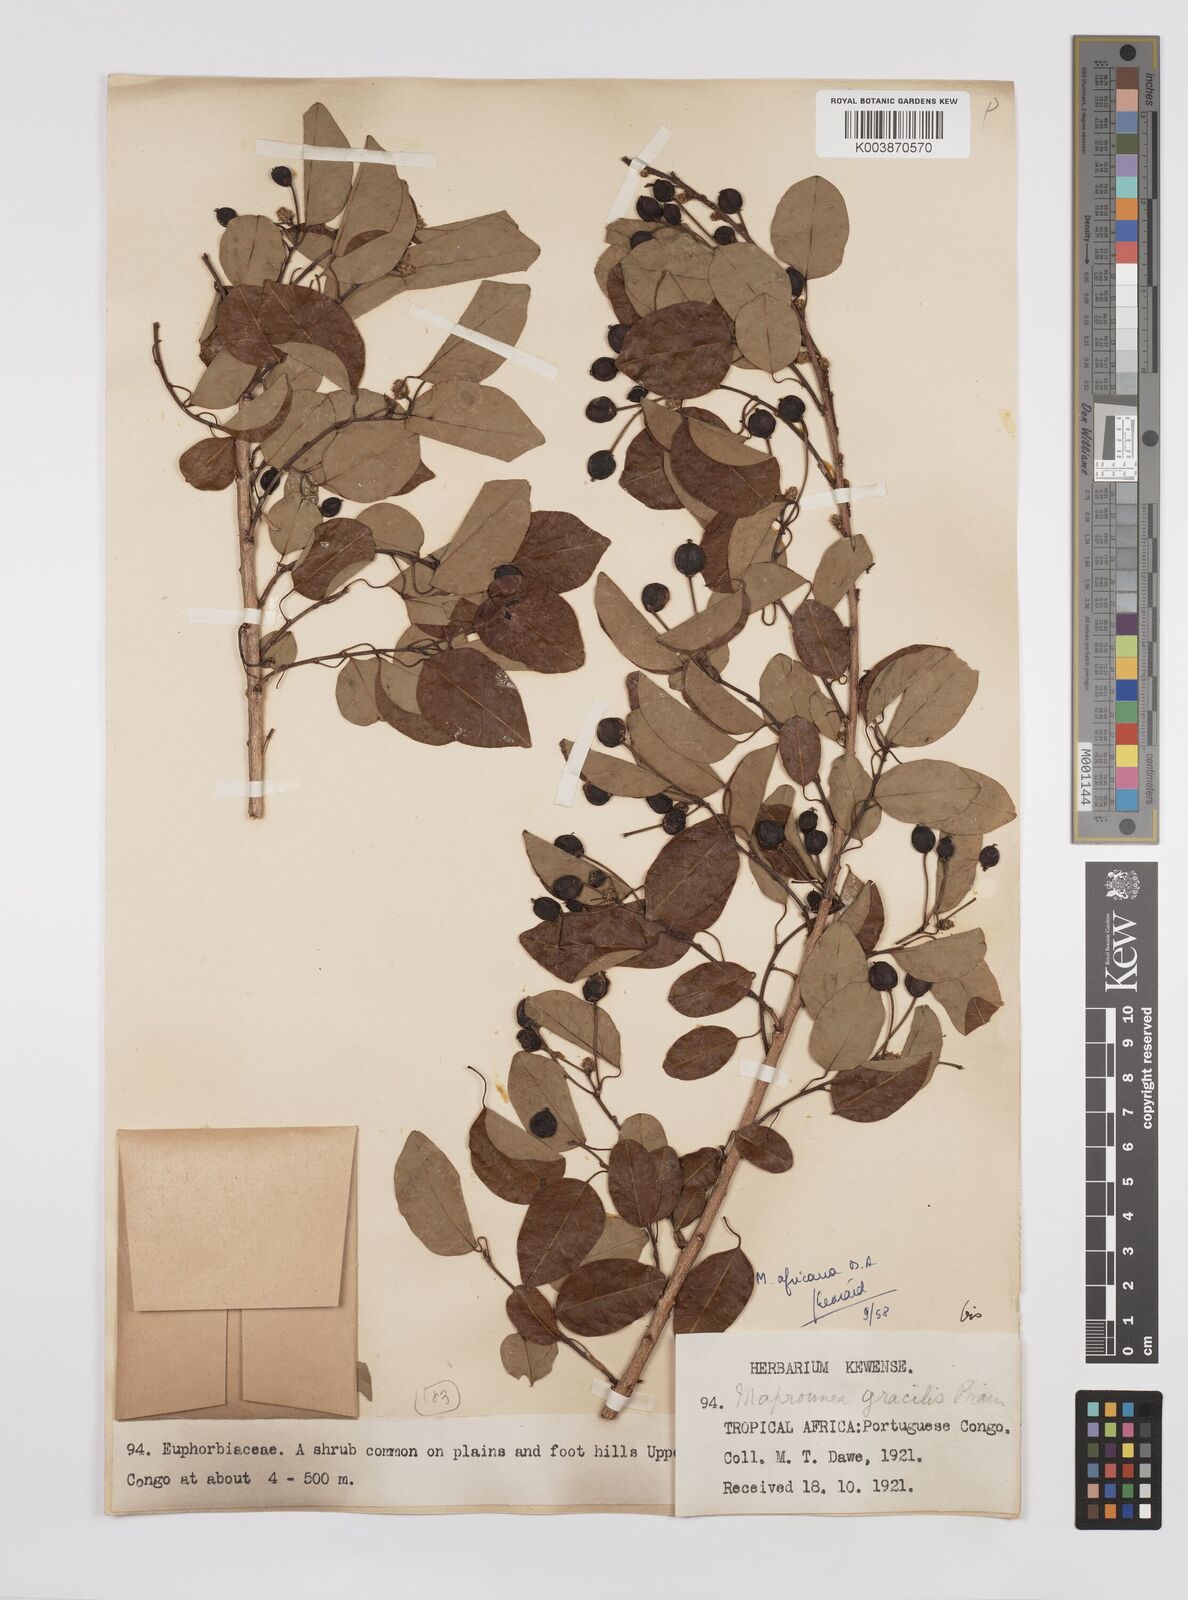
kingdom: Plantae
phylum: Tracheophyta
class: Magnoliopsida
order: Malpighiales
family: Euphorbiaceae
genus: Maprounea
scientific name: Maprounea africana
